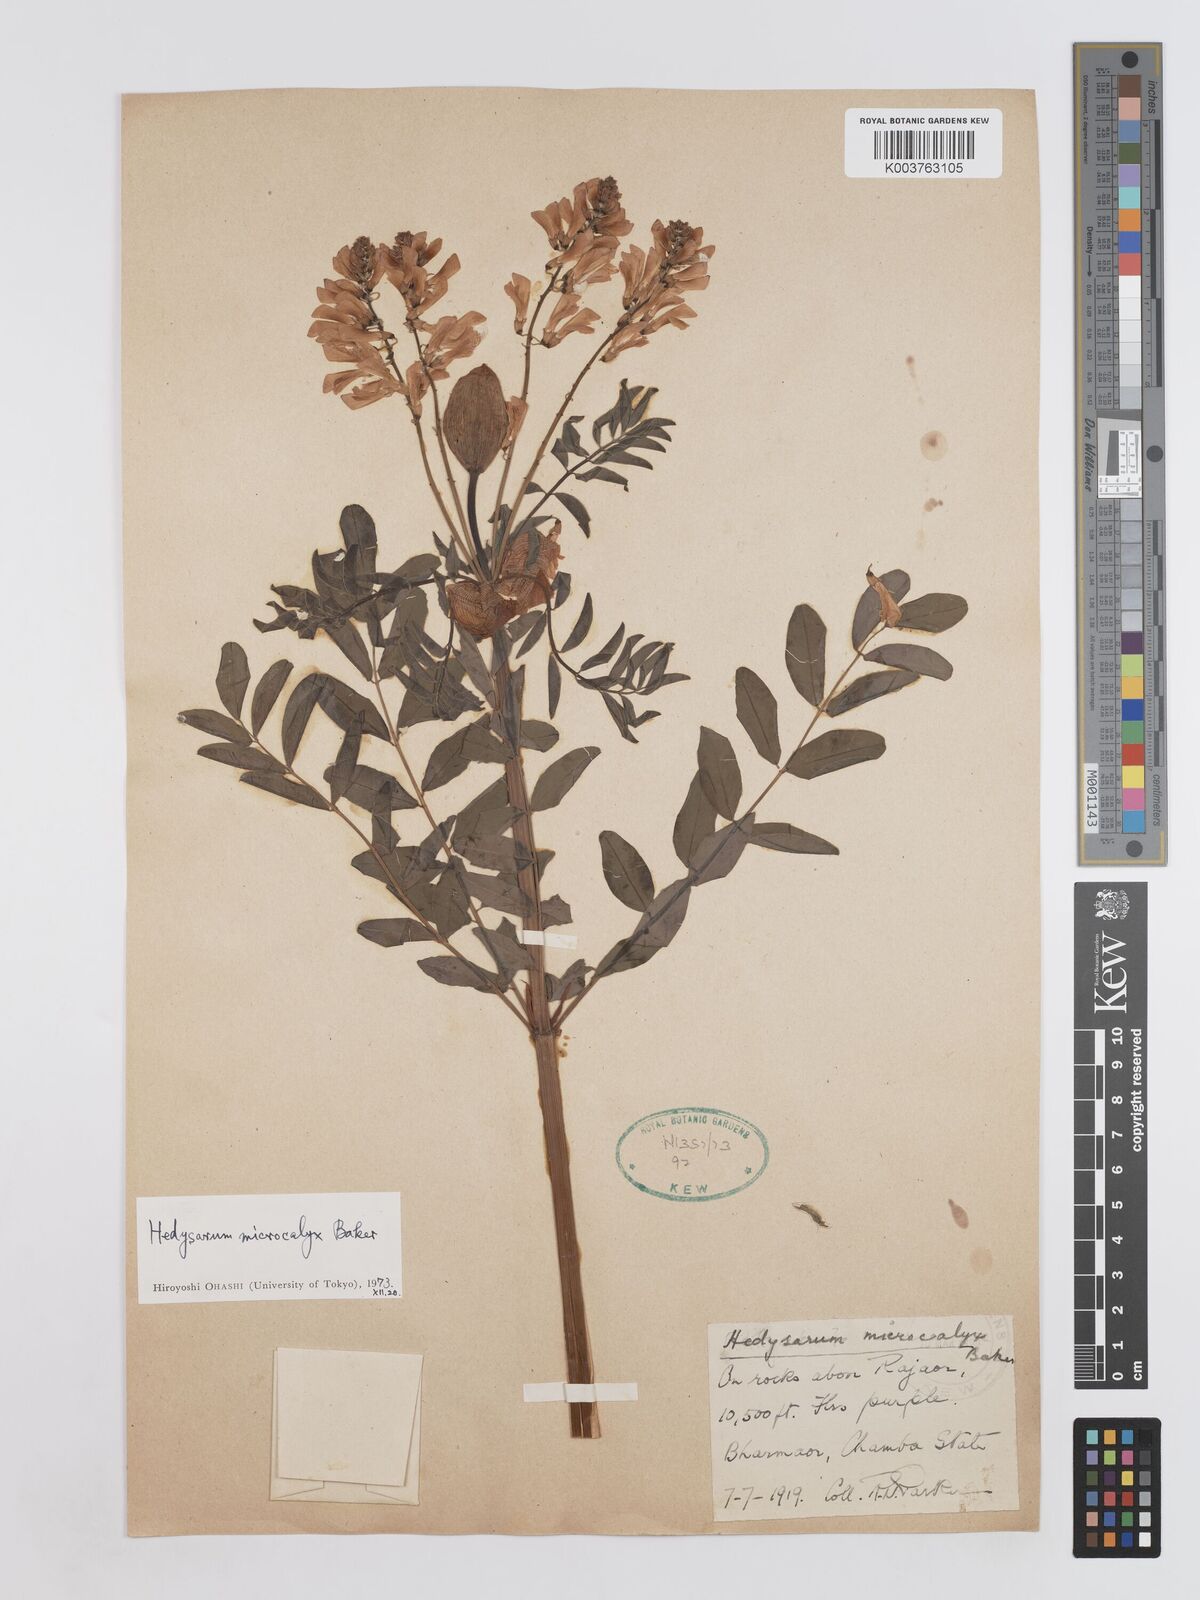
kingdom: Plantae
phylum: Tracheophyta
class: Magnoliopsida
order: Fabales
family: Fabaceae
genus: Hedysarum
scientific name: Hedysarum microcalyx
